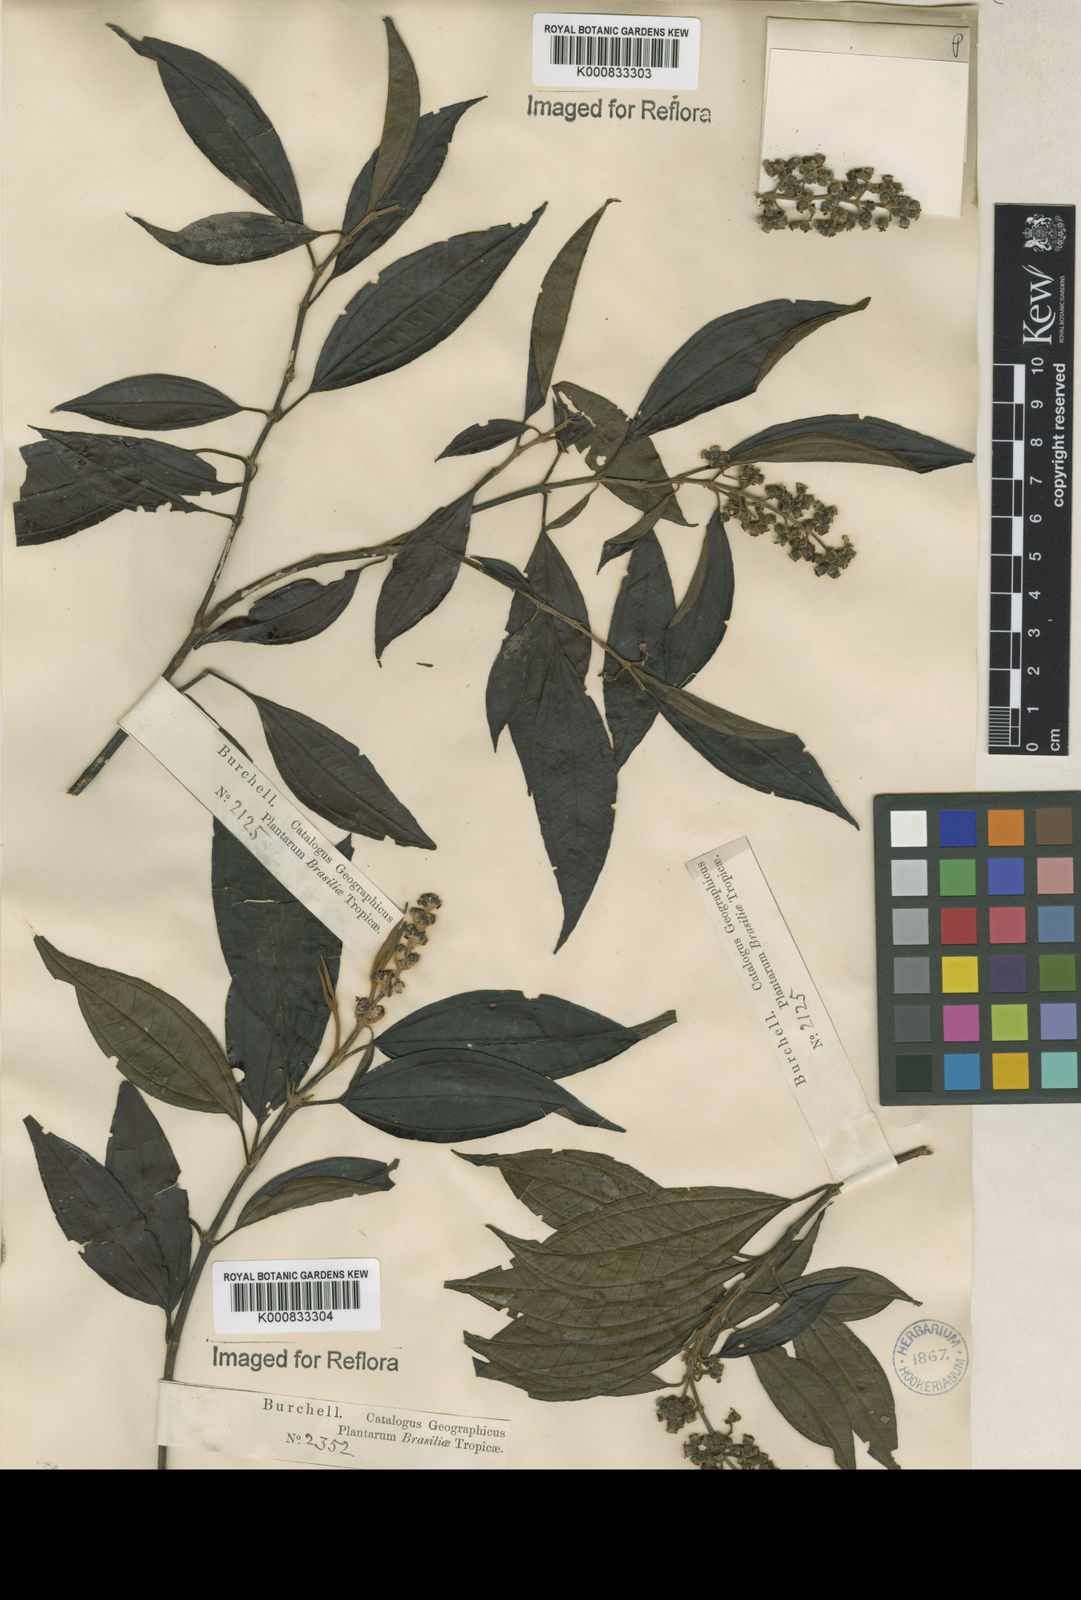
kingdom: Plantae
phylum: Tracheophyta
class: Magnoliopsida
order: Myrtales
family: Melastomataceae
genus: Miconia
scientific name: Miconia polyandra
